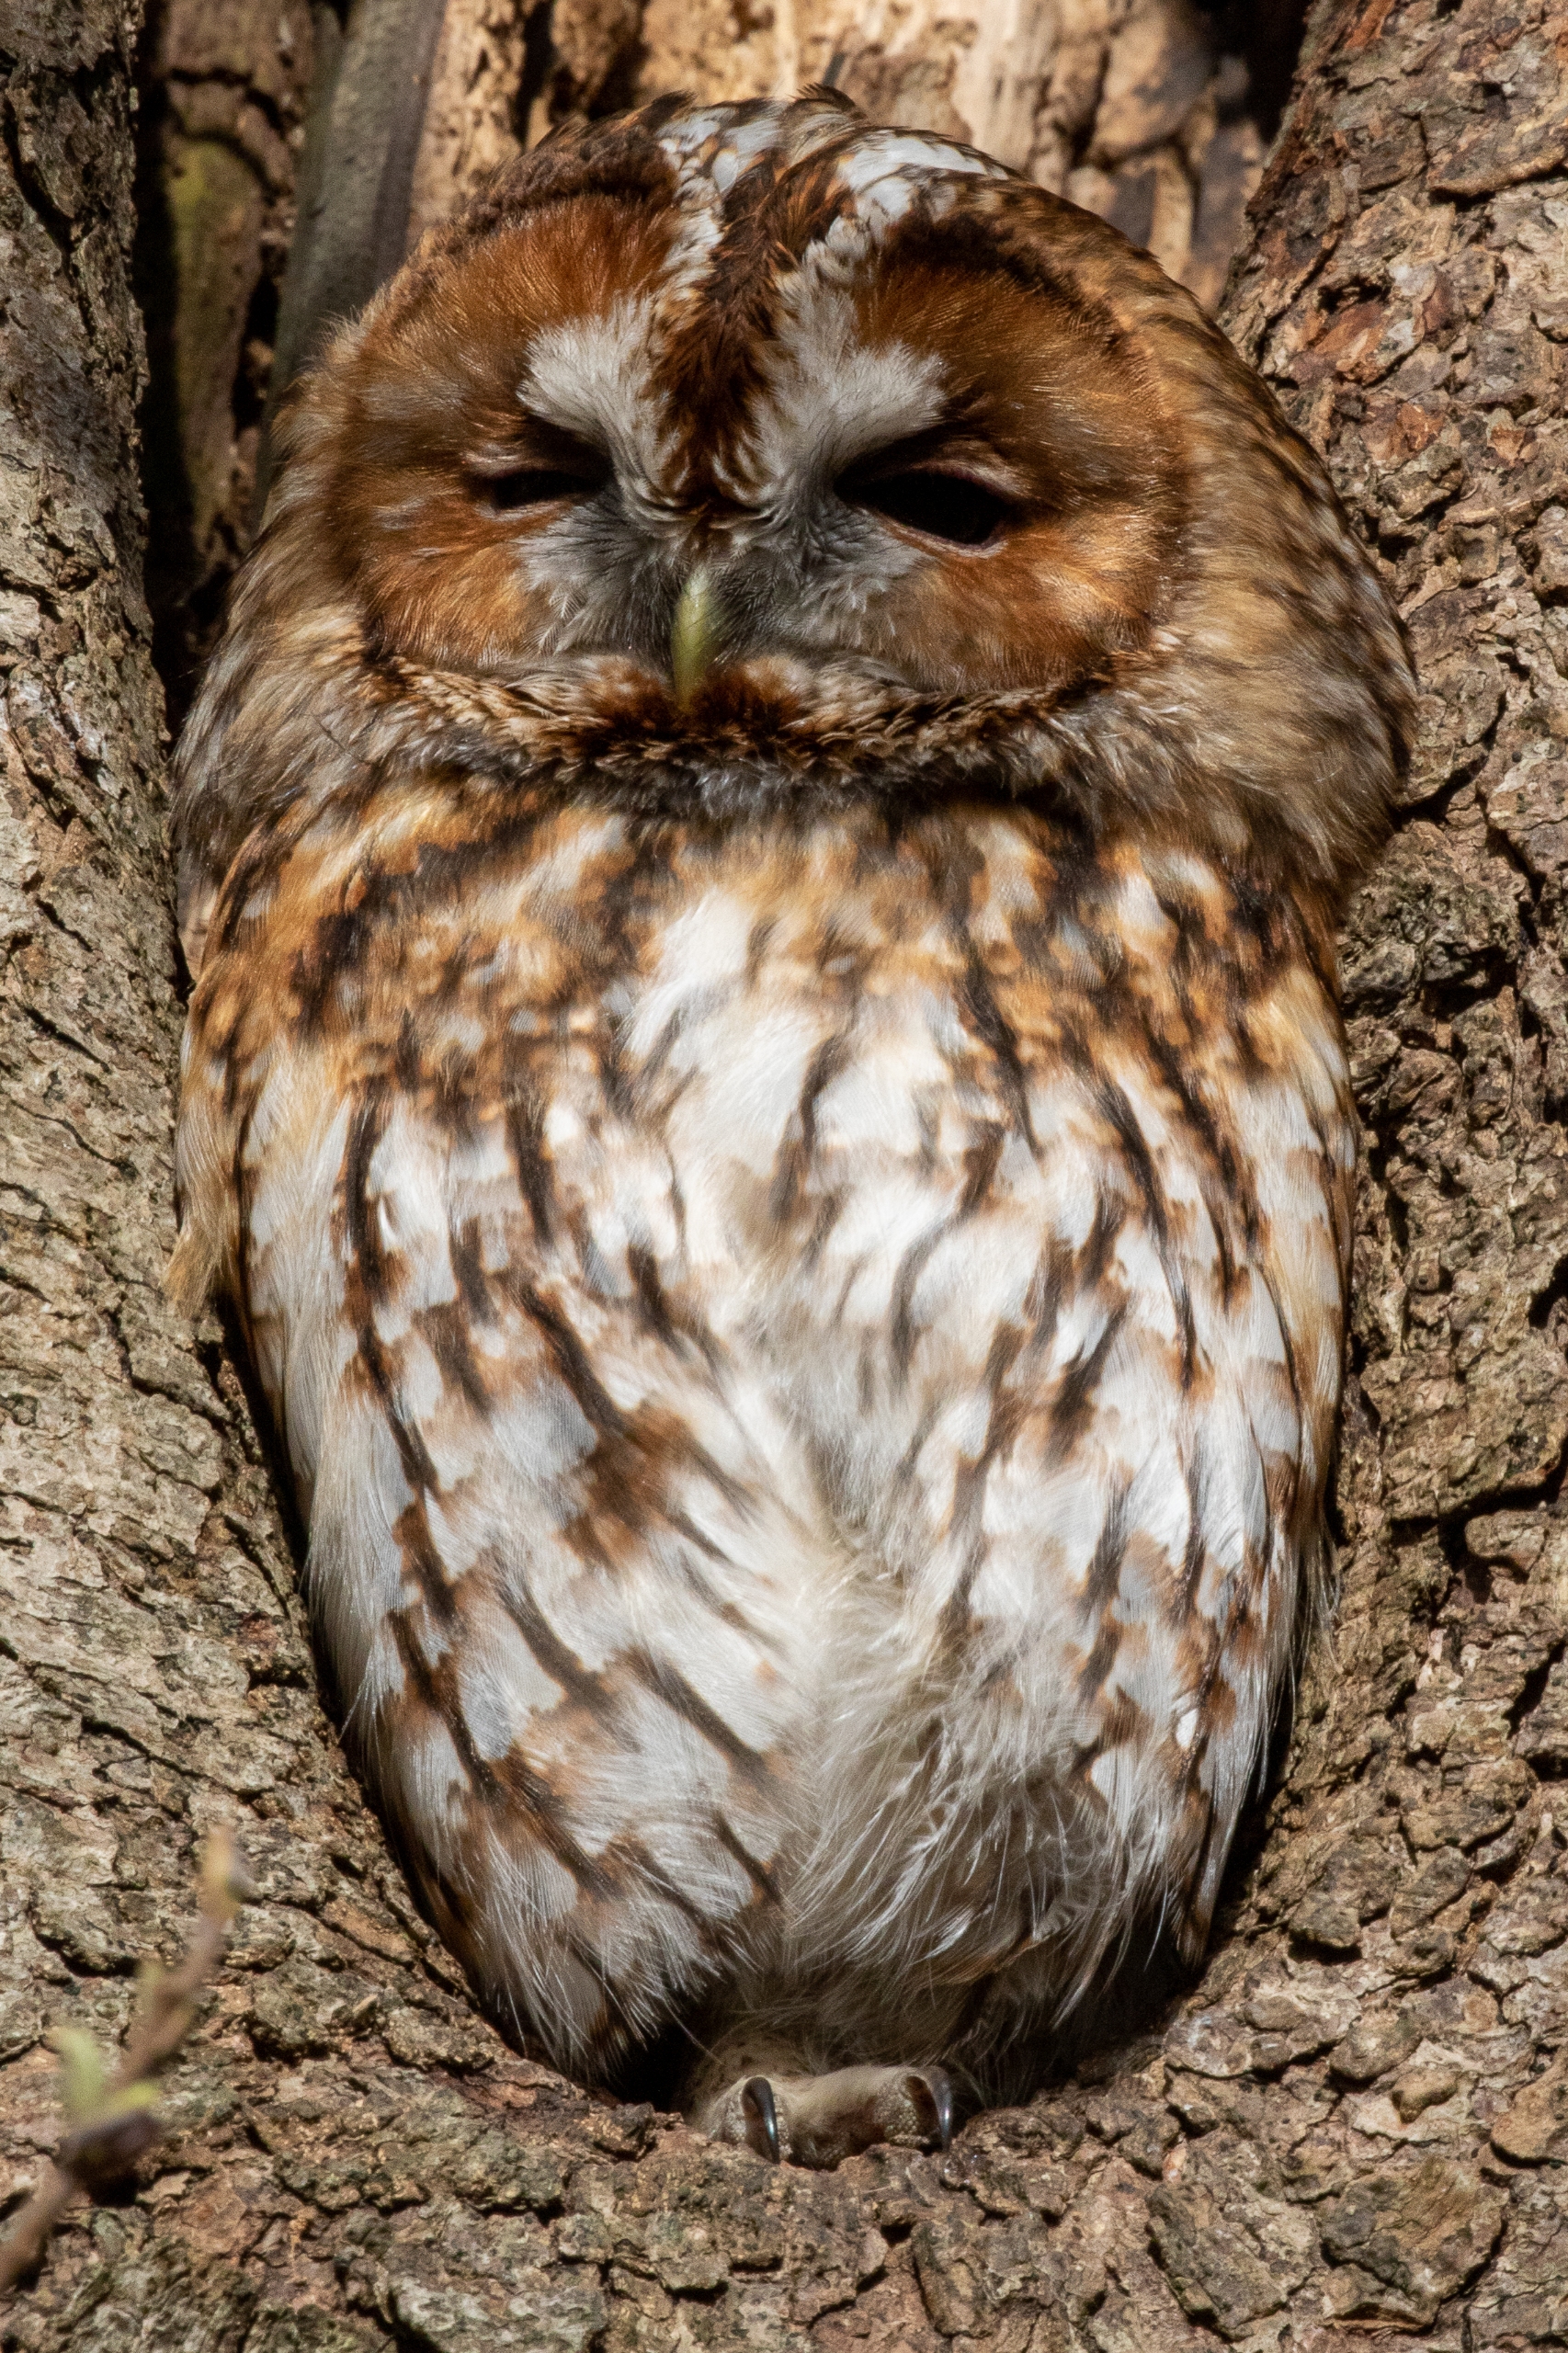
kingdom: Animalia
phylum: Chordata
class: Aves
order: Strigiformes
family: Strigidae
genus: Strix
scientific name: Strix aluco
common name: Natugle
